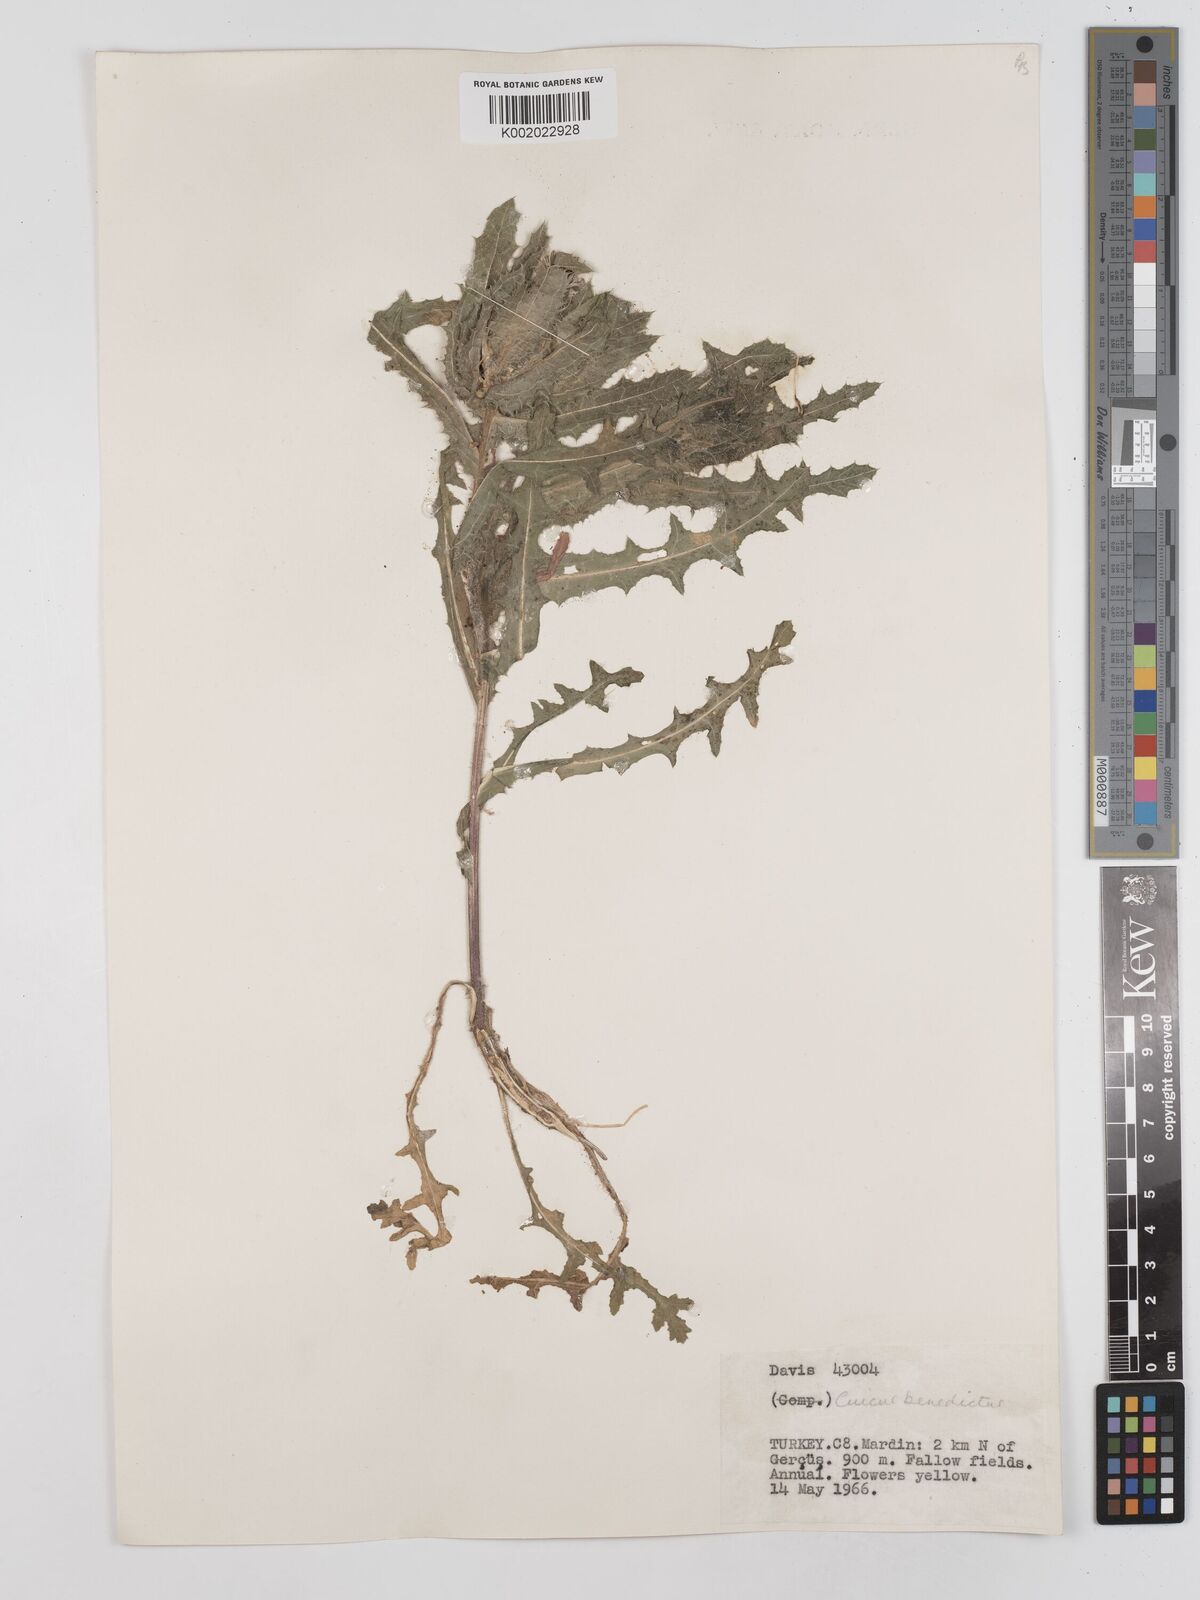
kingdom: Plantae
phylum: Tracheophyta
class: Magnoliopsida
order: Asterales
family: Asteraceae
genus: Centaurea
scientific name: Centaurea benedicta
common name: Blessed thistle
